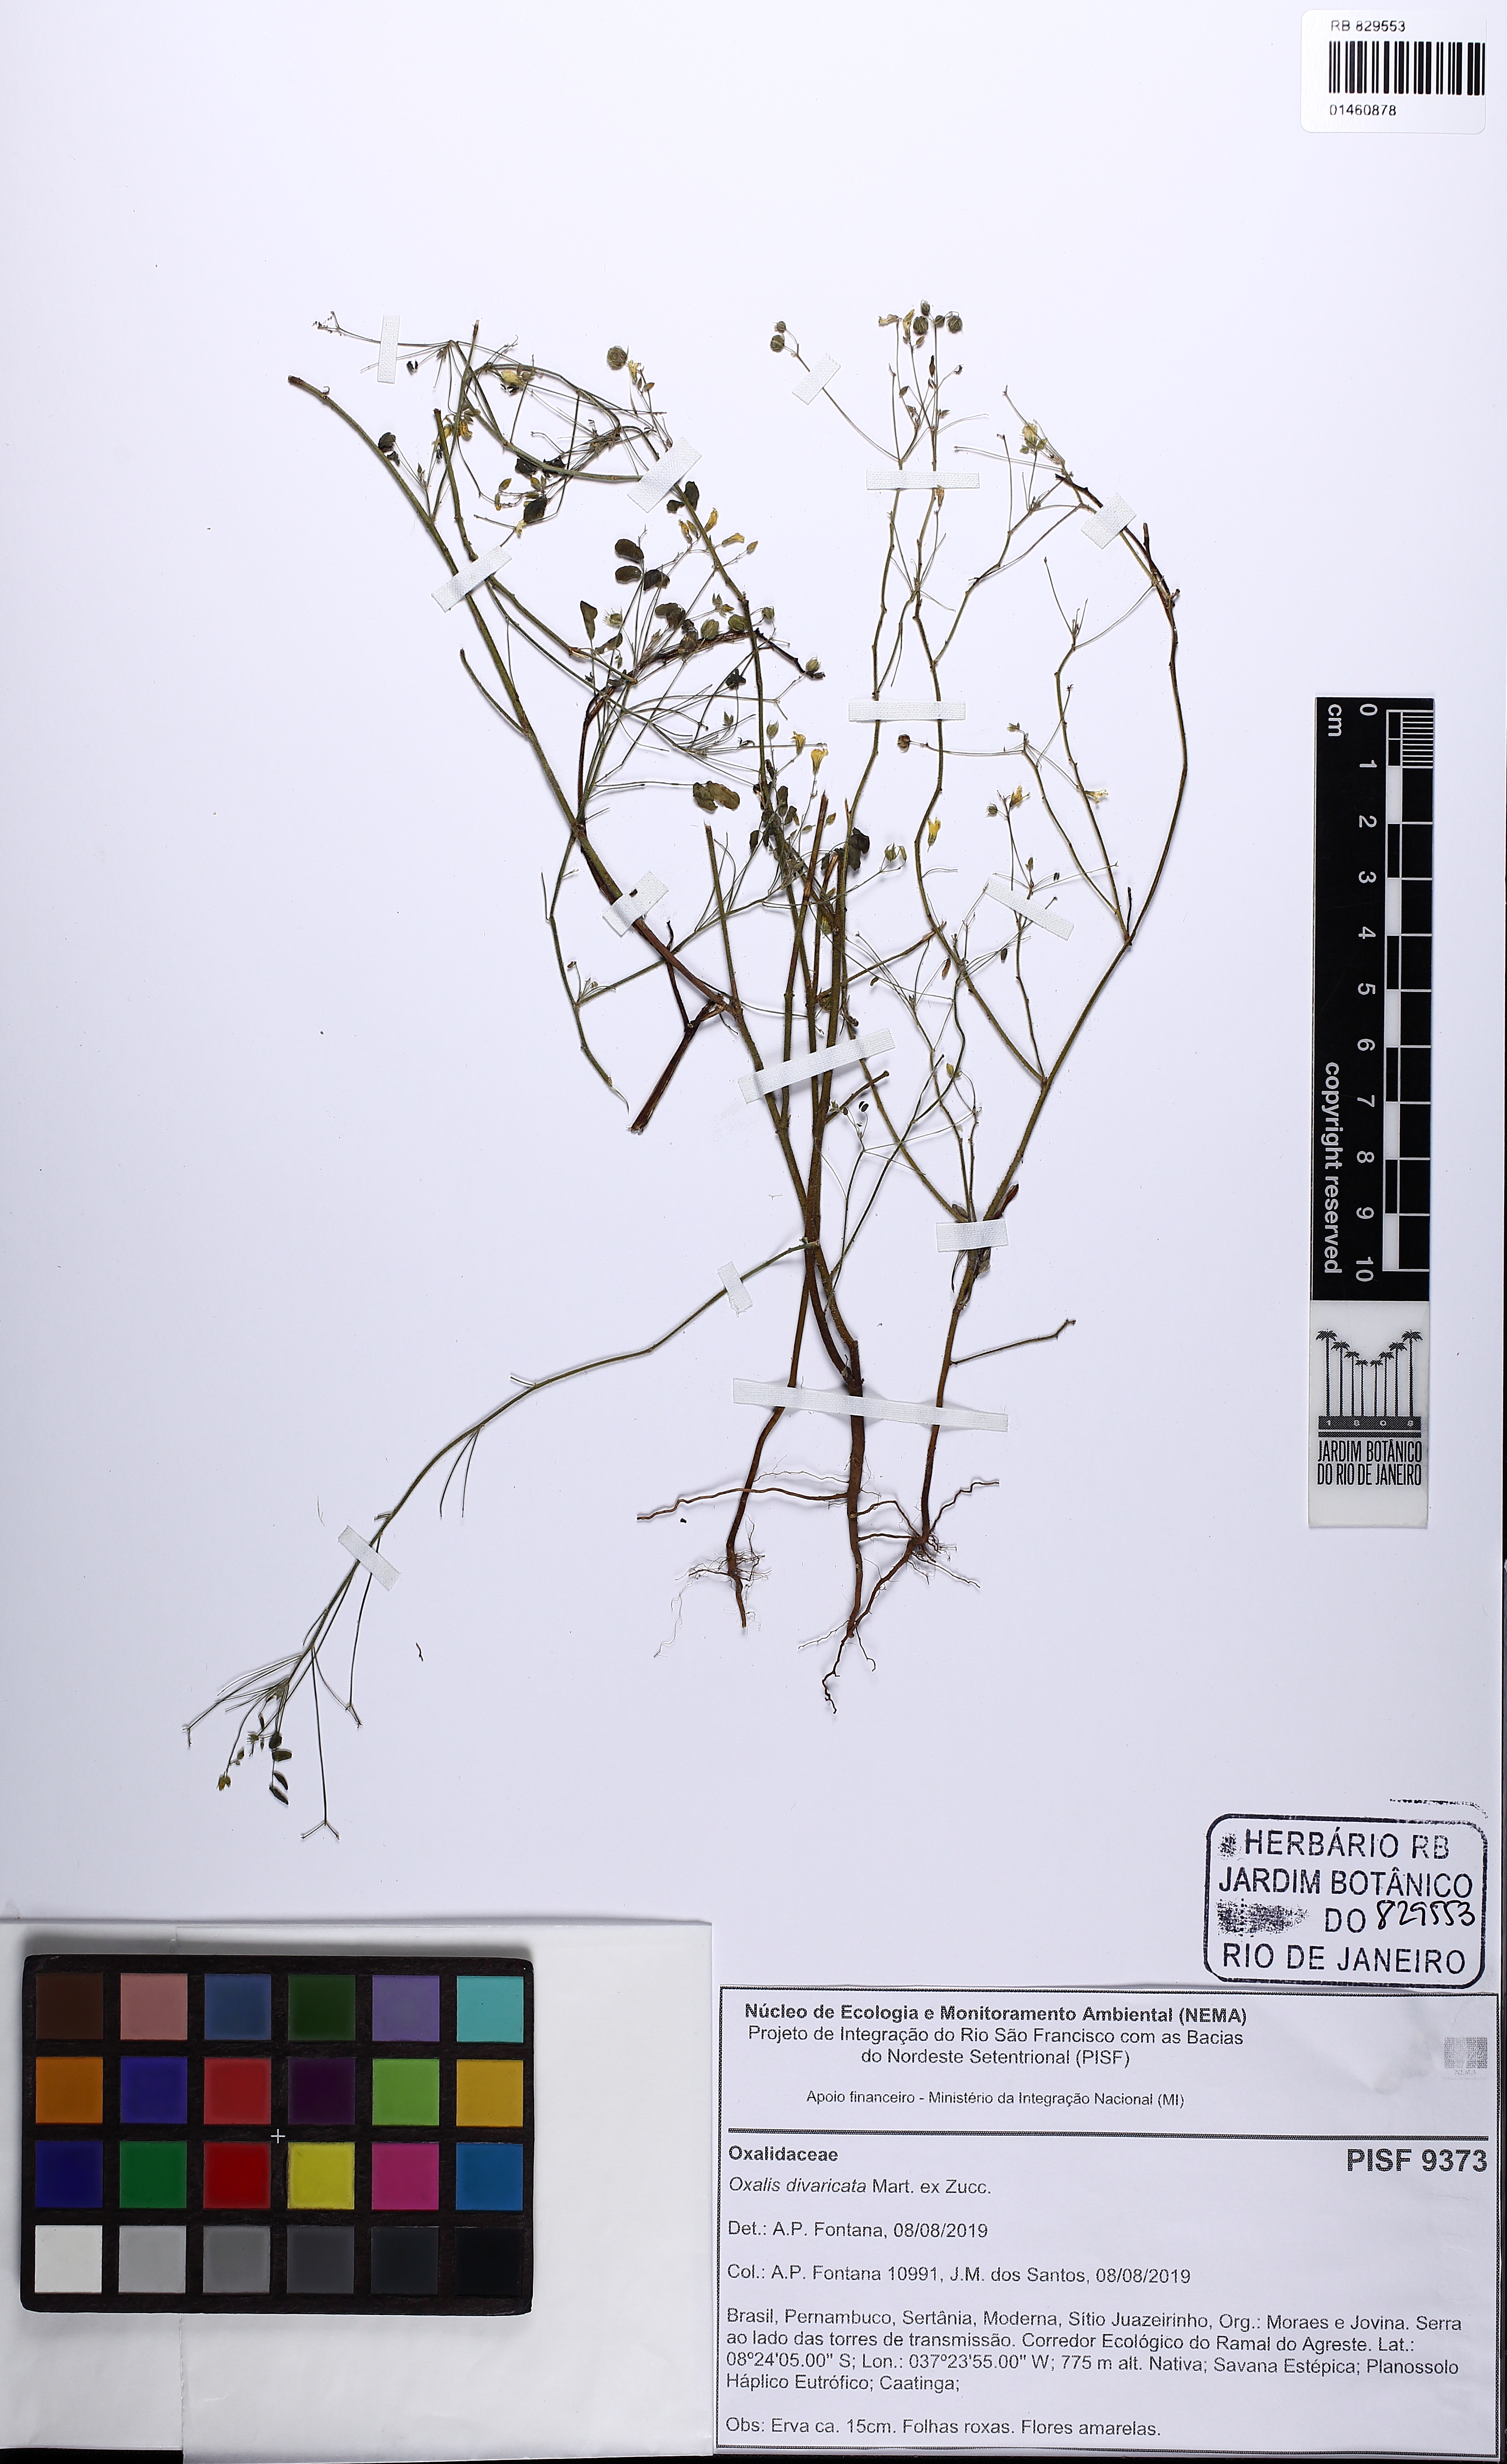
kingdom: Plantae
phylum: Tracheophyta
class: Magnoliopsida
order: Oxalidales
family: Oxalidaceae
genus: Oxalis
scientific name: Oxalis divaricata
